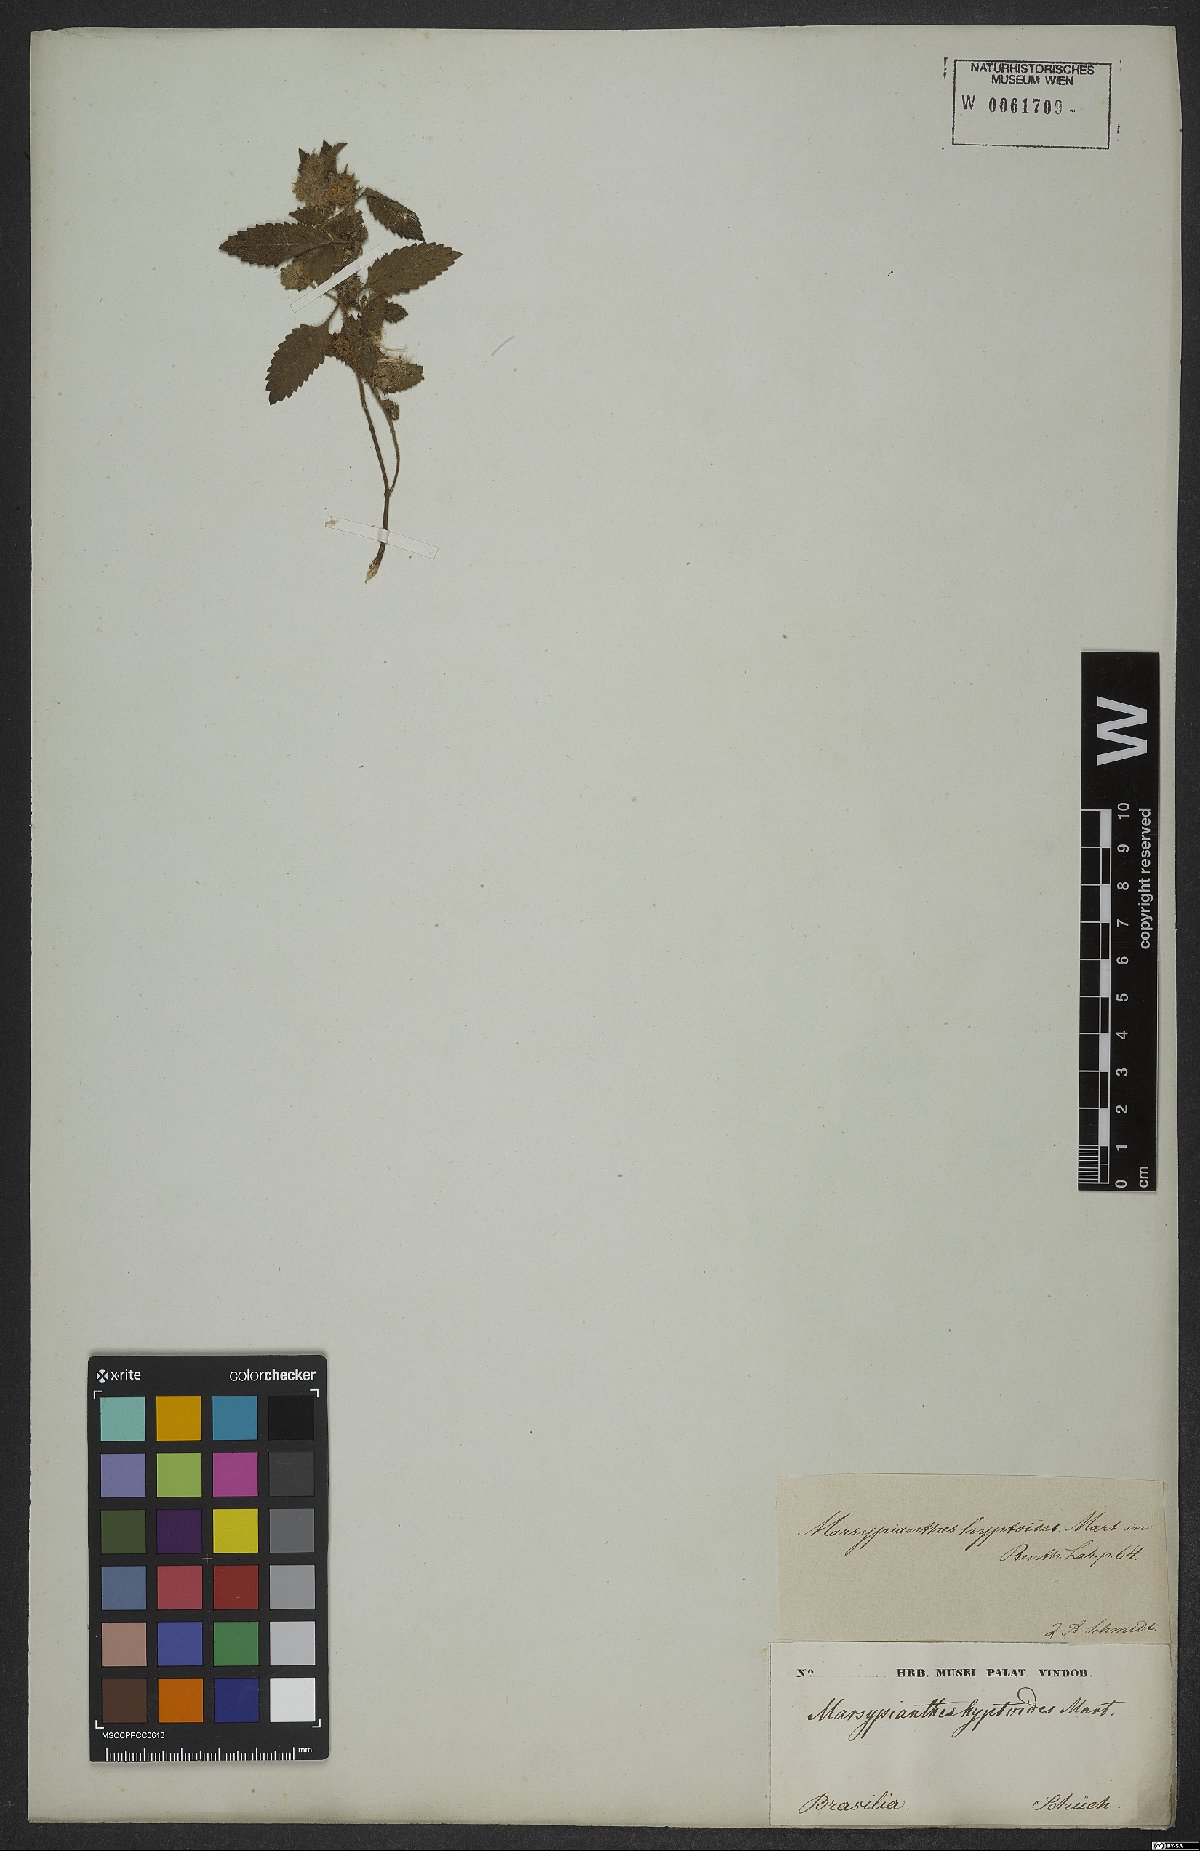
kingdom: Plantae
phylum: Tracheophyta
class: Magnoliopsida
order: Lamiales
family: Lamiaceae
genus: Marsypianthes
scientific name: Marsypianthes chamaedrys
